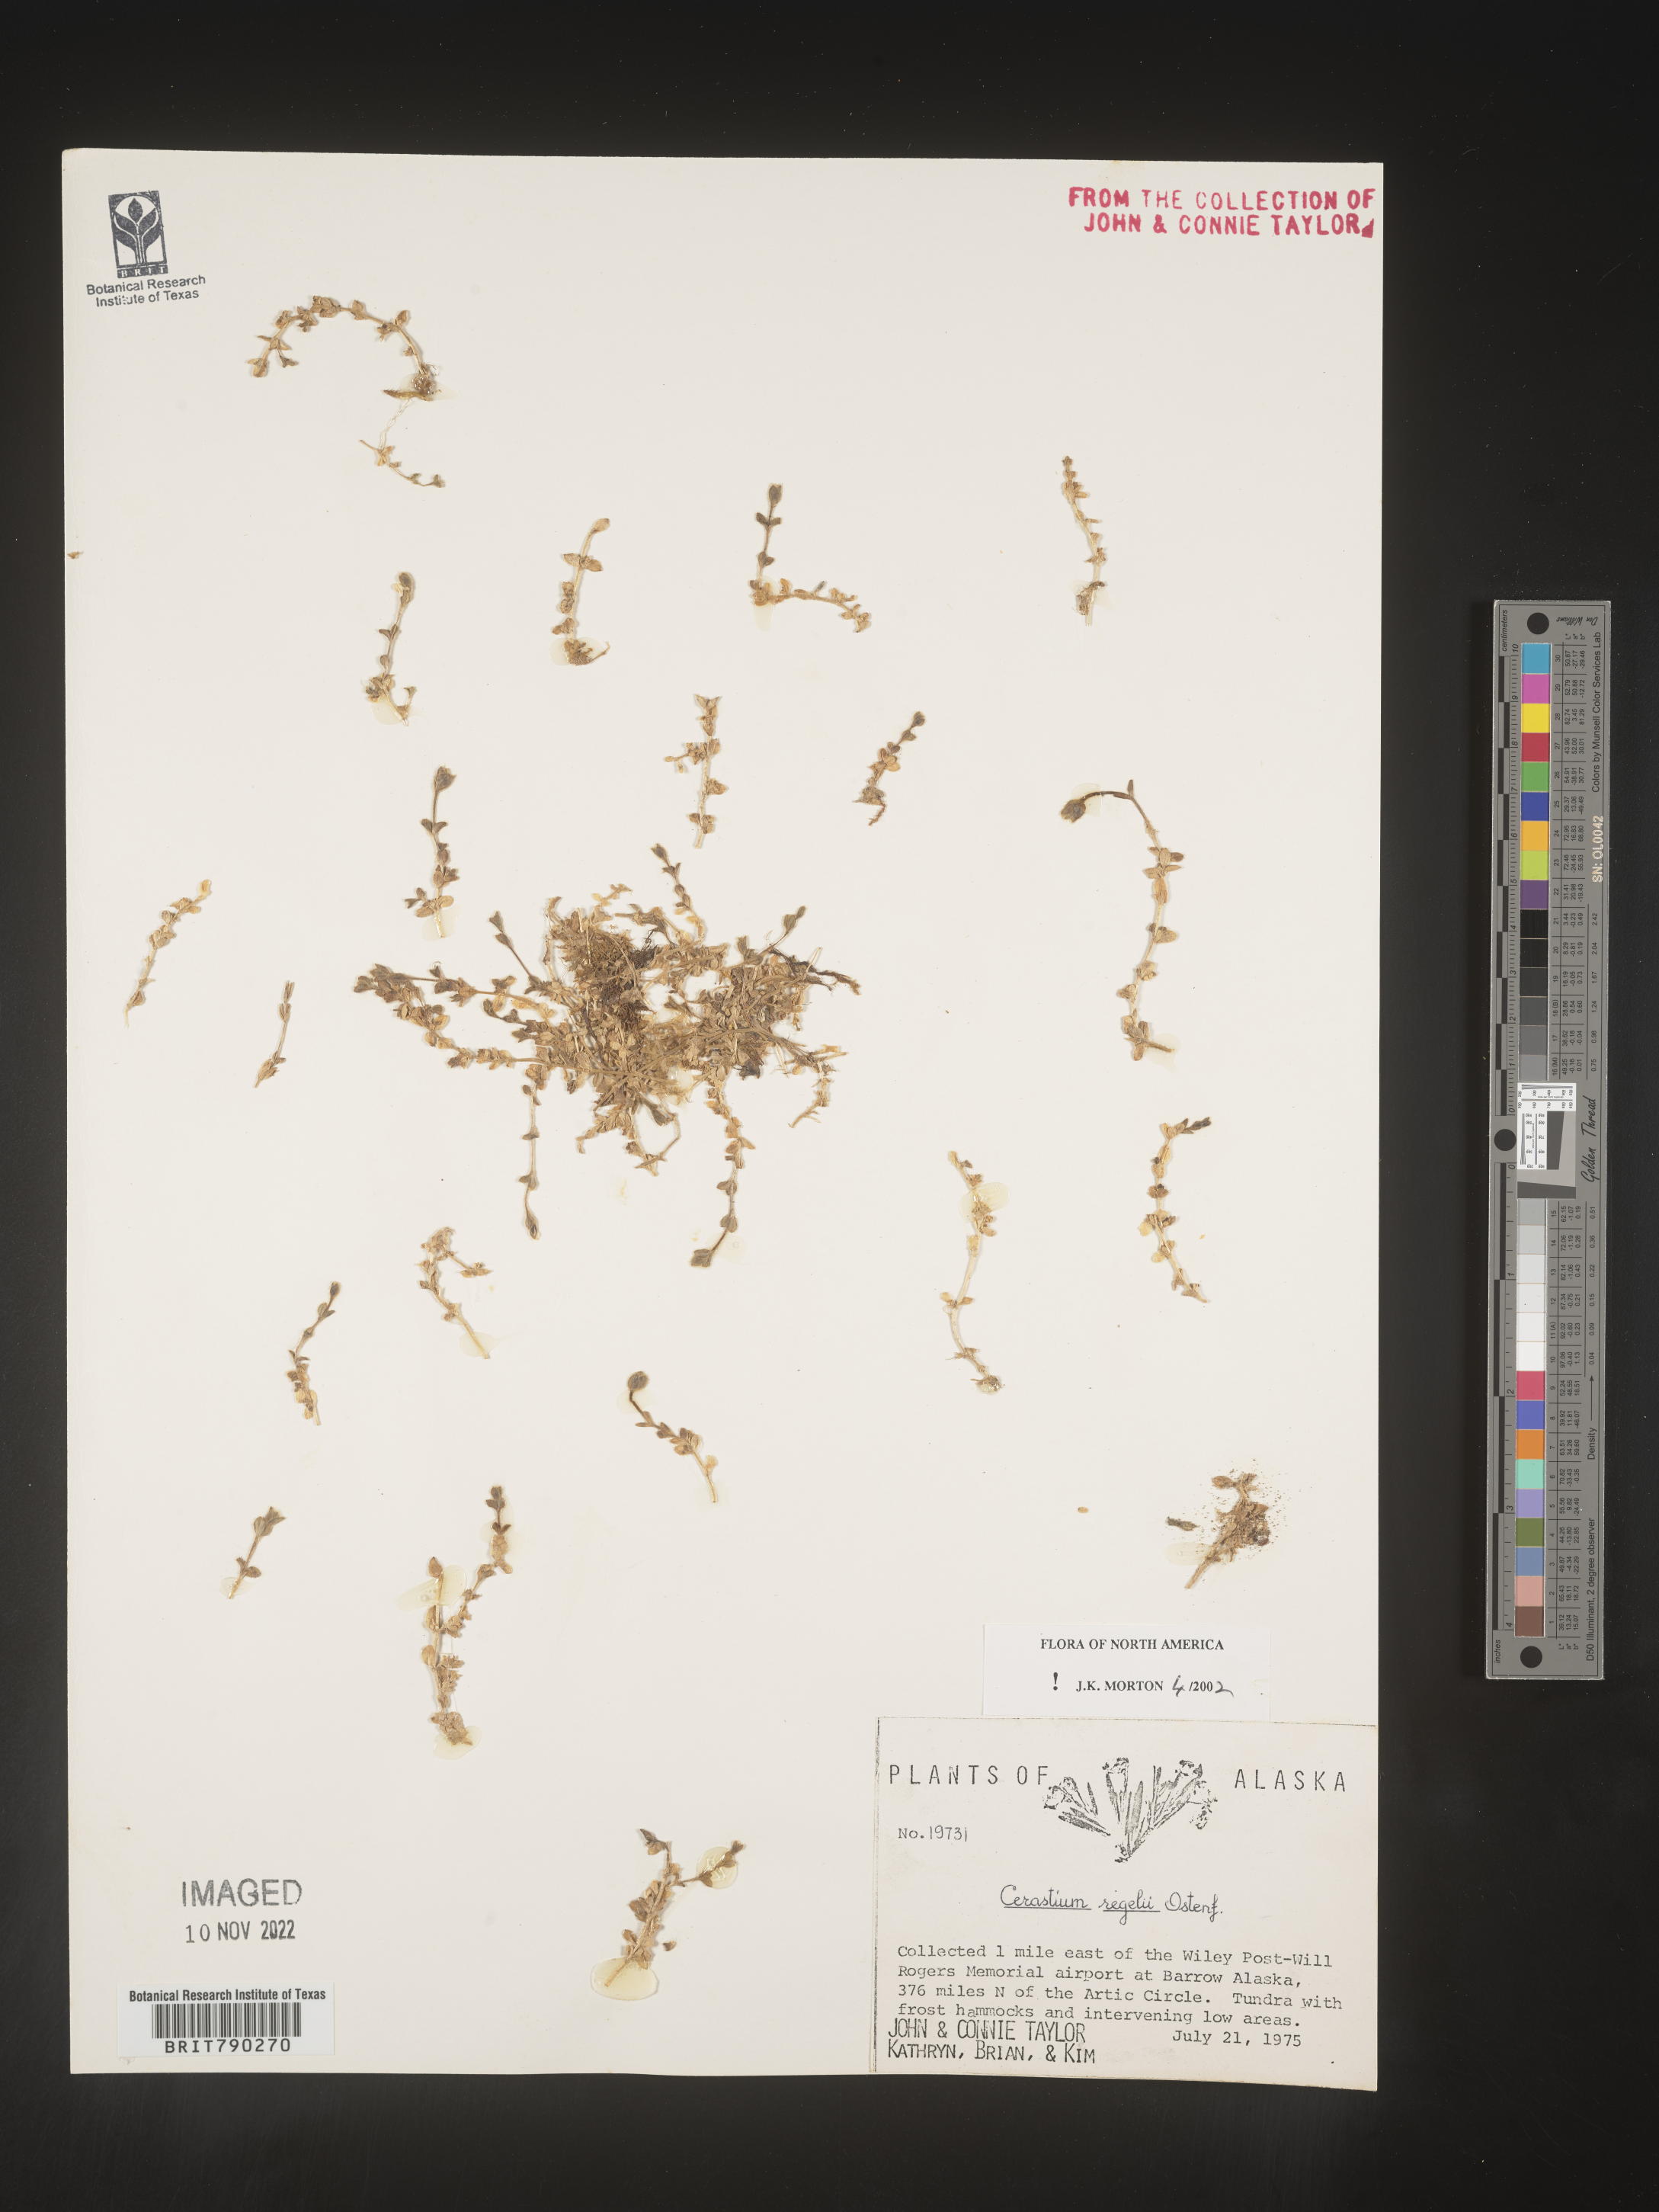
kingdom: Plantae
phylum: Tracheophyta
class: Magnoliopsida
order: Caryophyllales
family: Caryophyllaceae
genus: Cerastium
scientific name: Cerastium regelii
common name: Regel's chickweed
